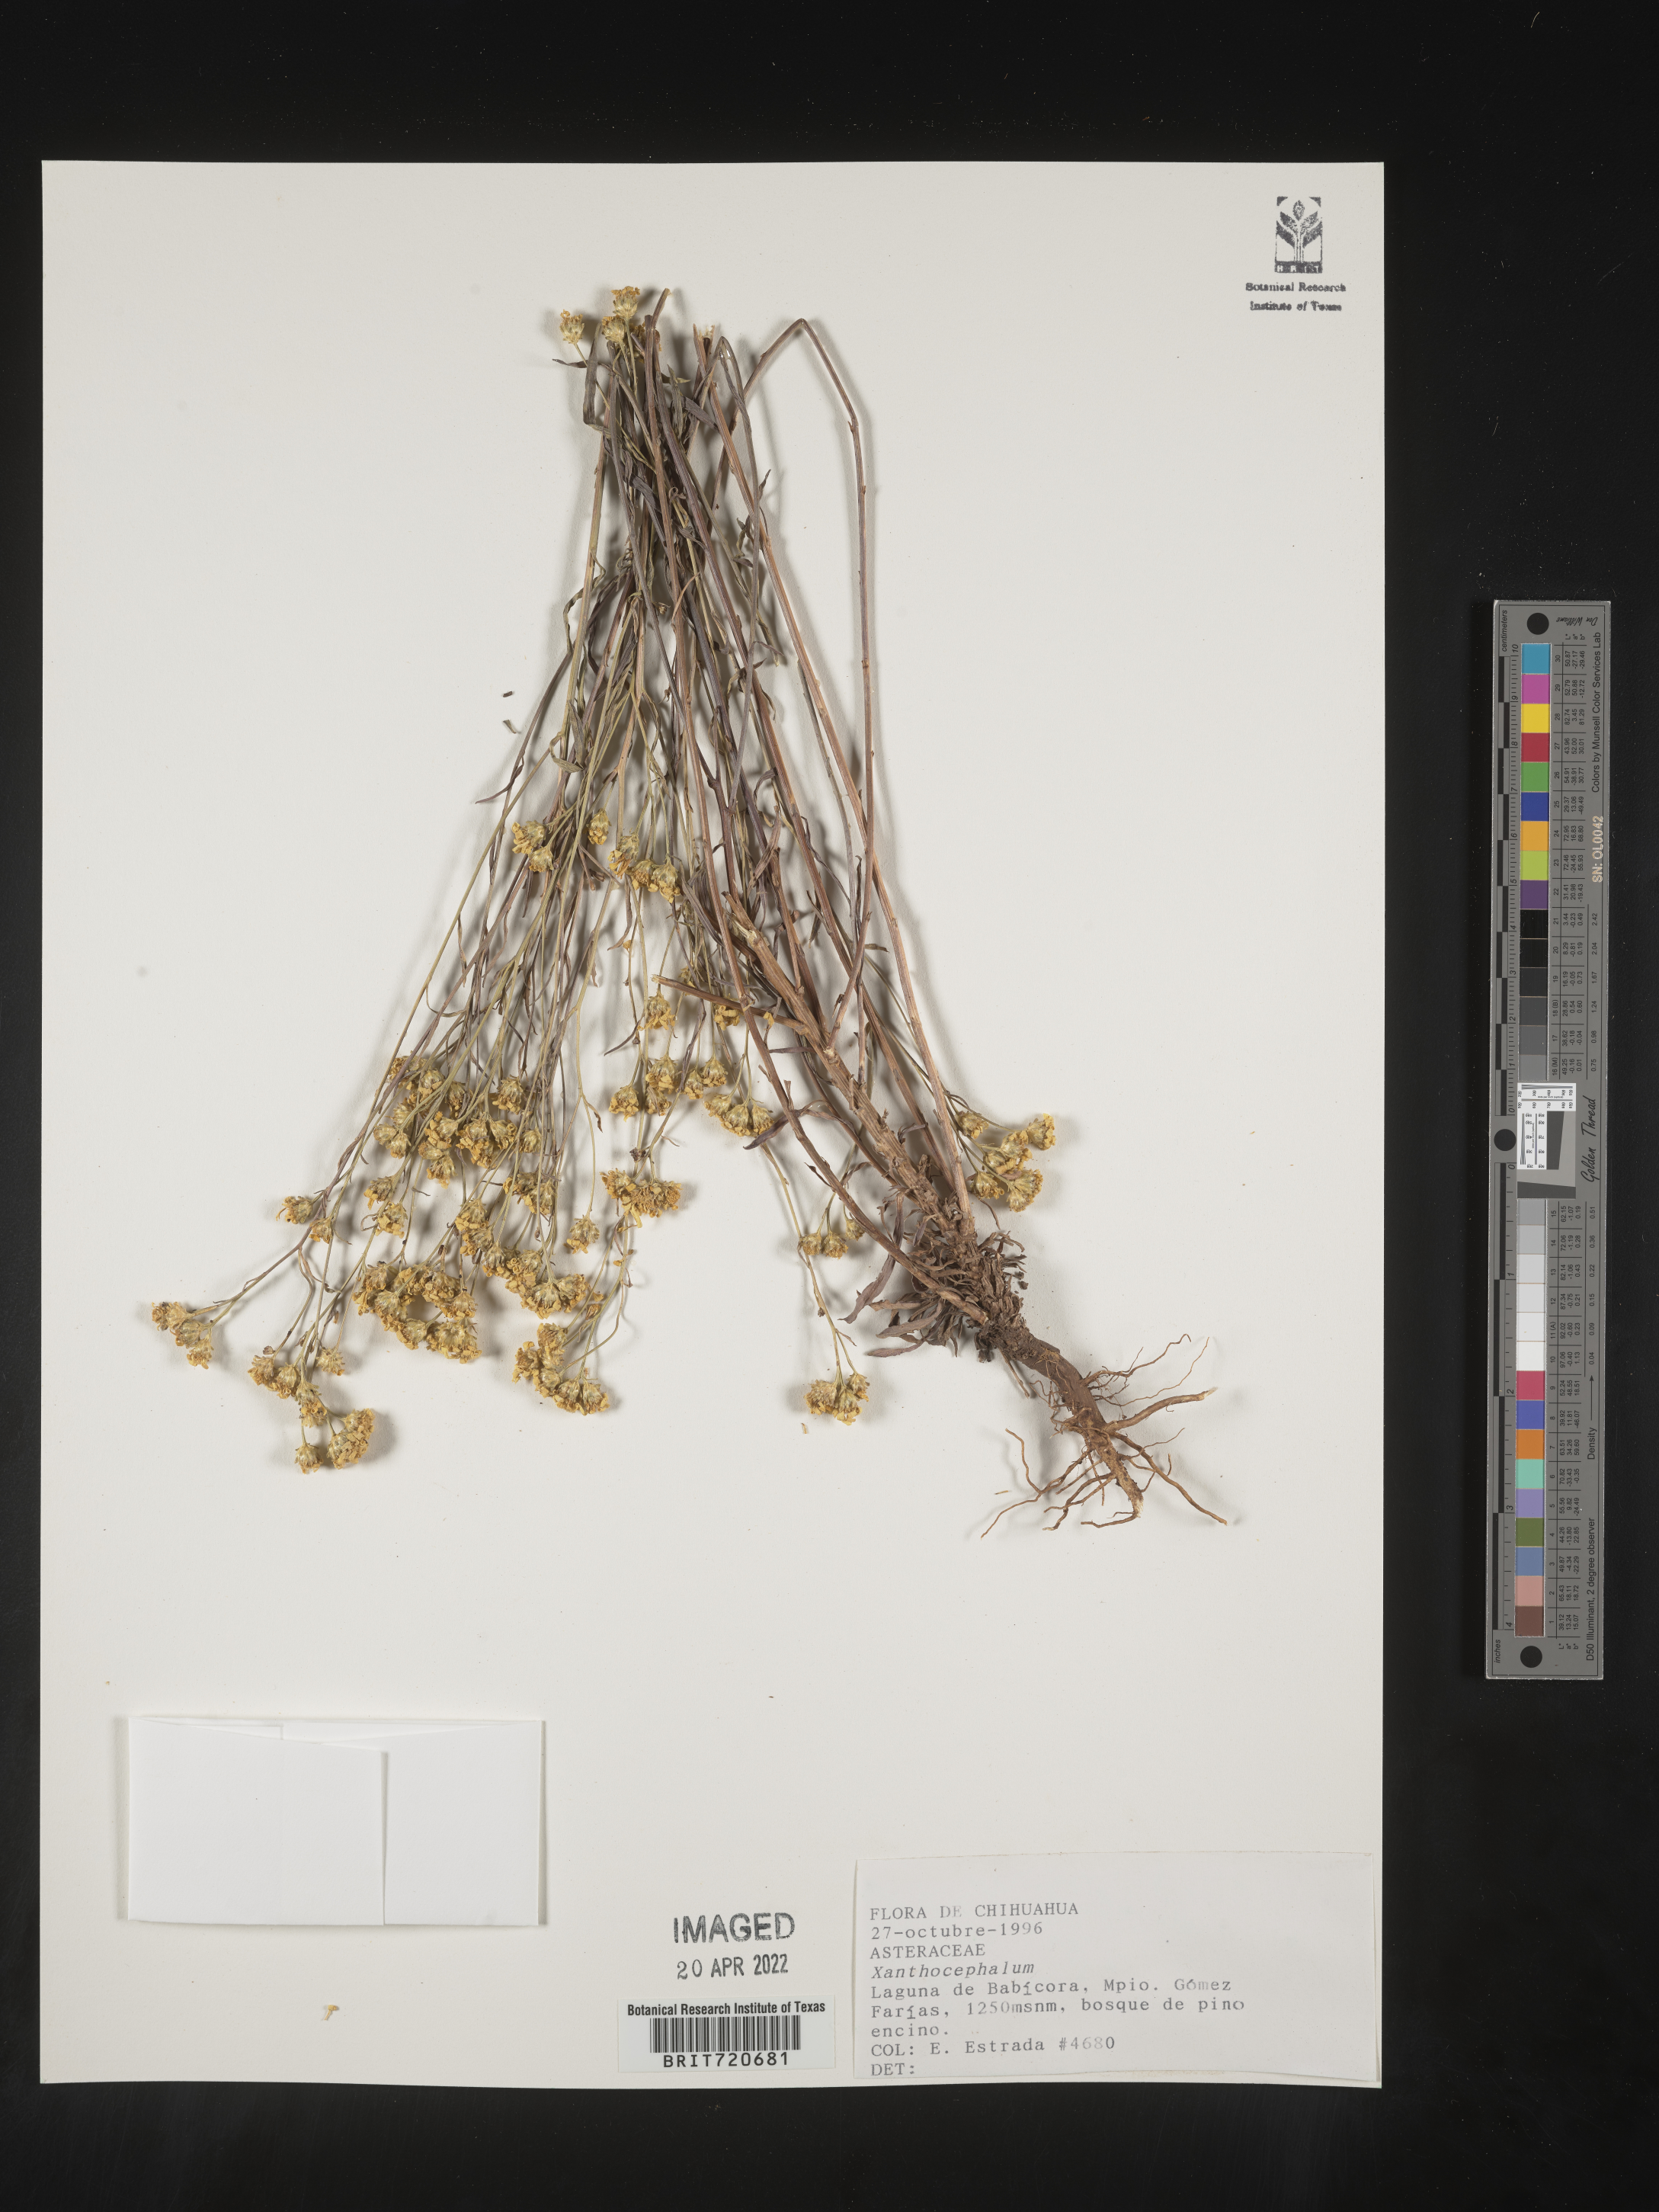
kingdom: Plantae
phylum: Tracheophyta
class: Magnoliopsida
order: Asterales
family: Asteraceae
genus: Gutierrezia
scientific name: Gutierrezia
